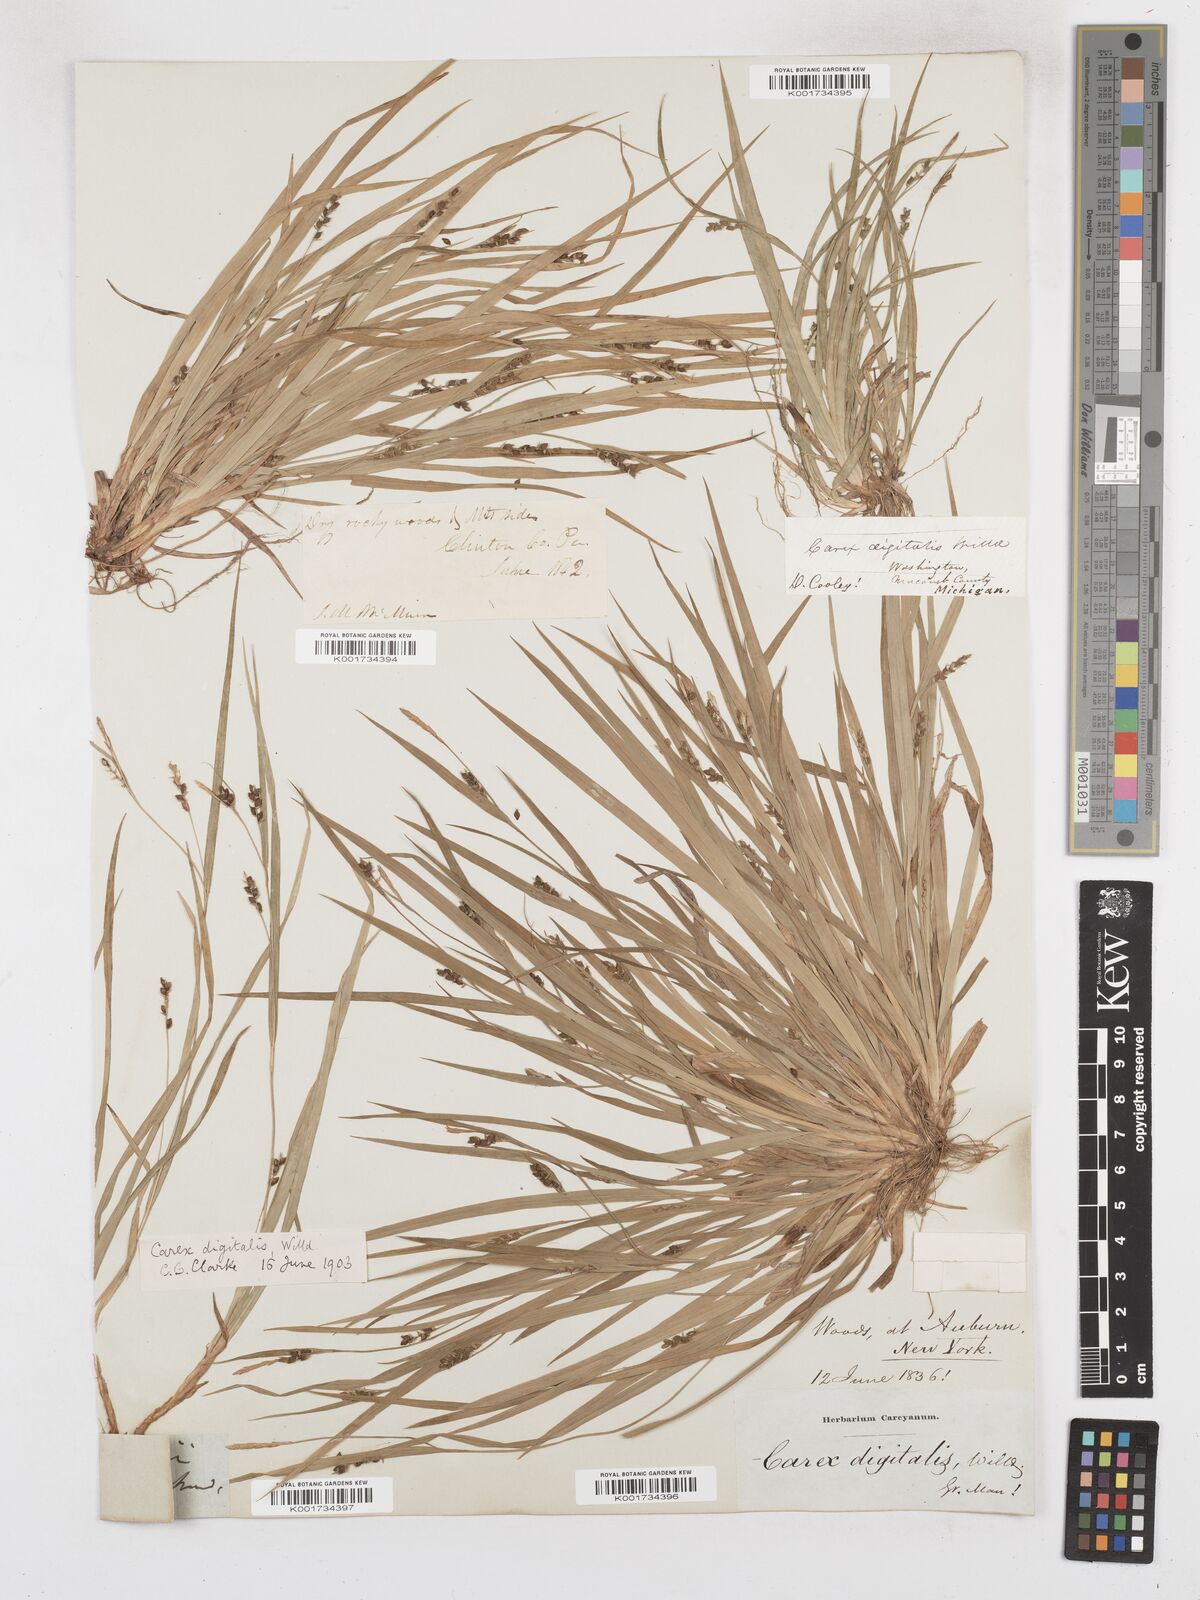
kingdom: Plantae
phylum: Tracheophyta
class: Liliopsida
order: Poales
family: Cyperaceae
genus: Carex
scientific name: Carex digitalis
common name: Slender wood sedge
